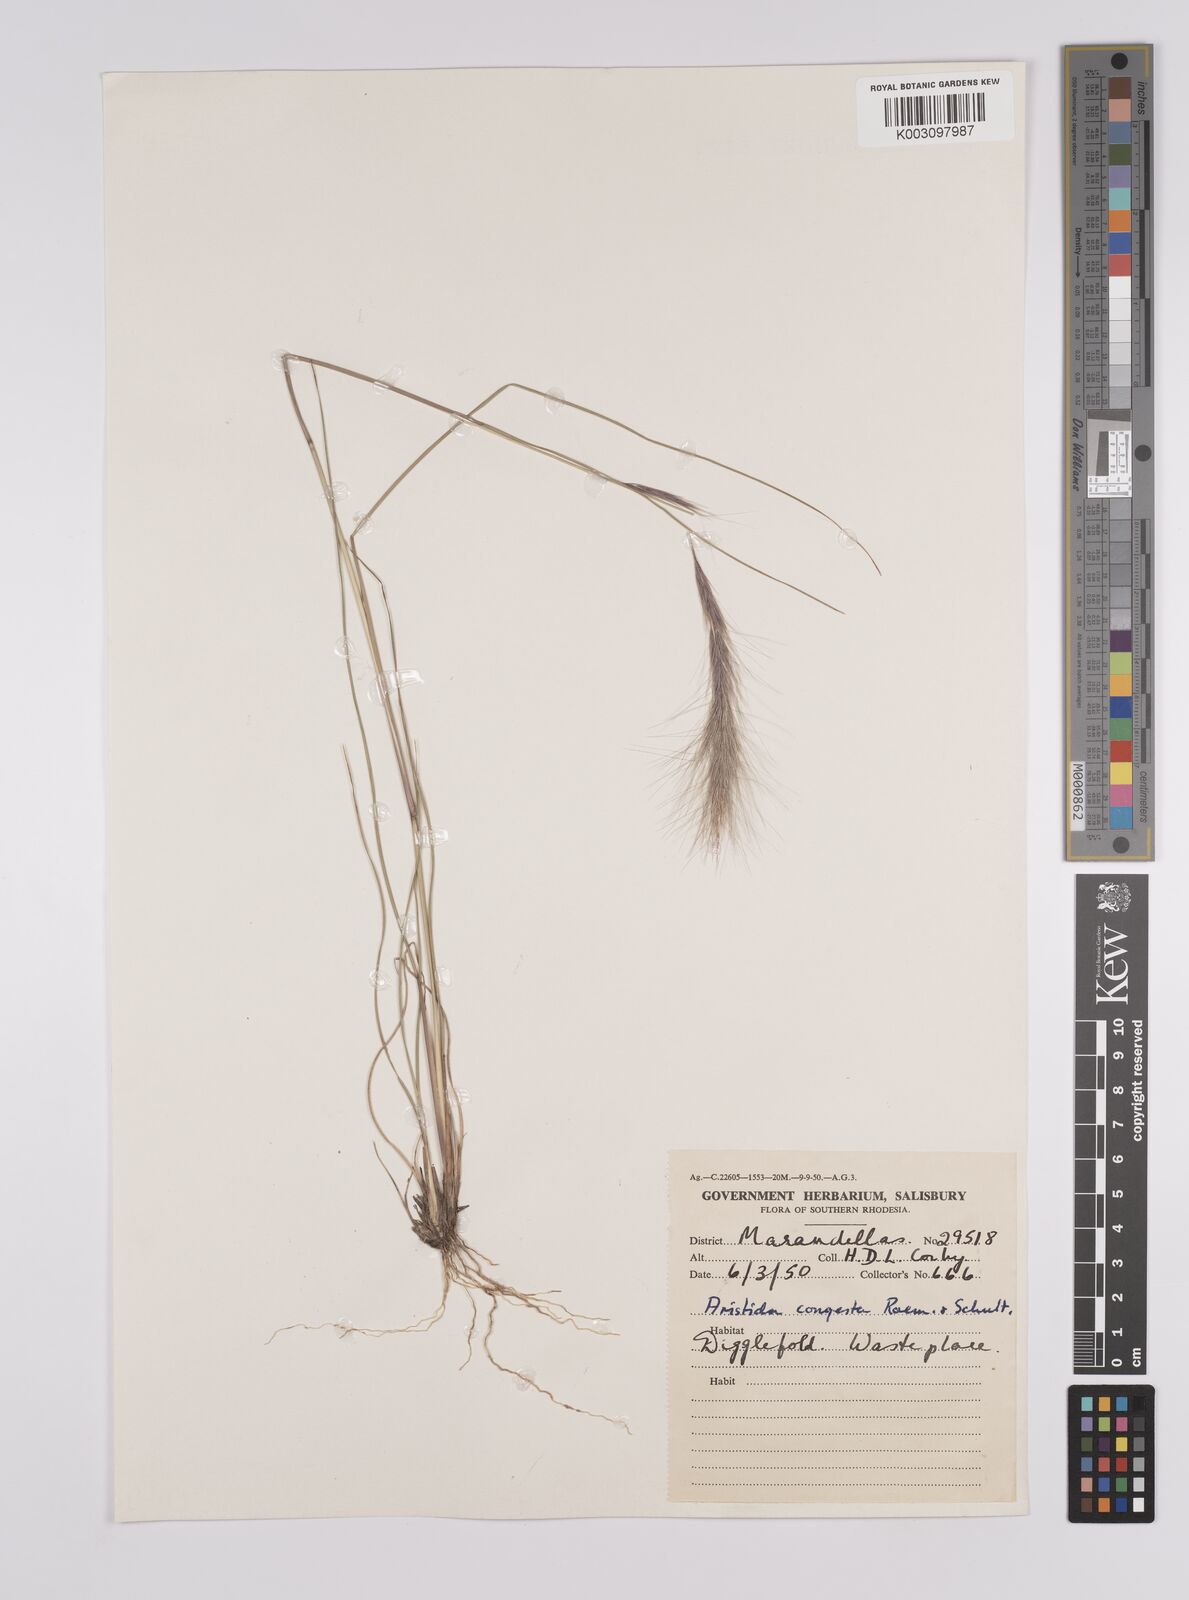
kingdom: Plantae
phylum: Tracheophyta
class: Liliopsida
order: Poales
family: Poaceae
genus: Aristida
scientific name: Aristida congesta
